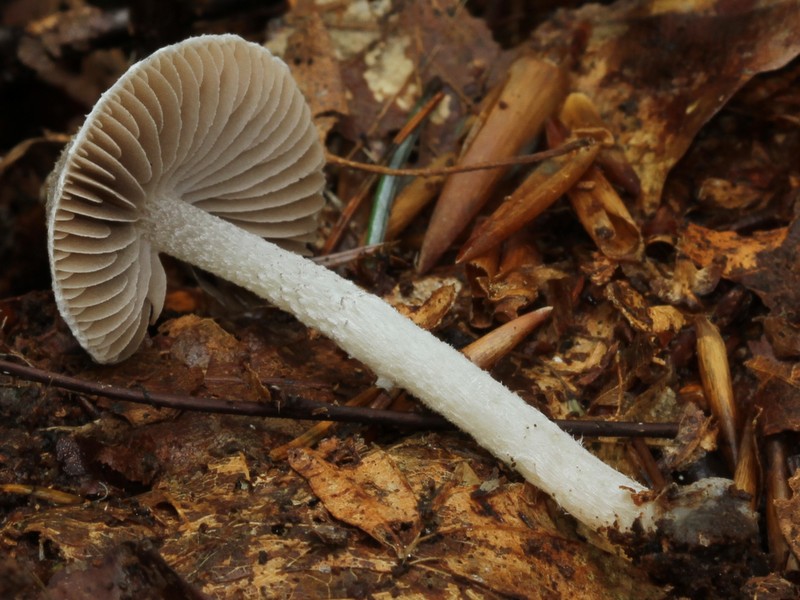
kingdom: Fungi
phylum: Basidiomycota
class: Agaricomycetes
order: Agaricales
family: Psathyrellaceae
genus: Psathyrella
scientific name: Psathyrella fibrillosa
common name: almindelig mørkhat
